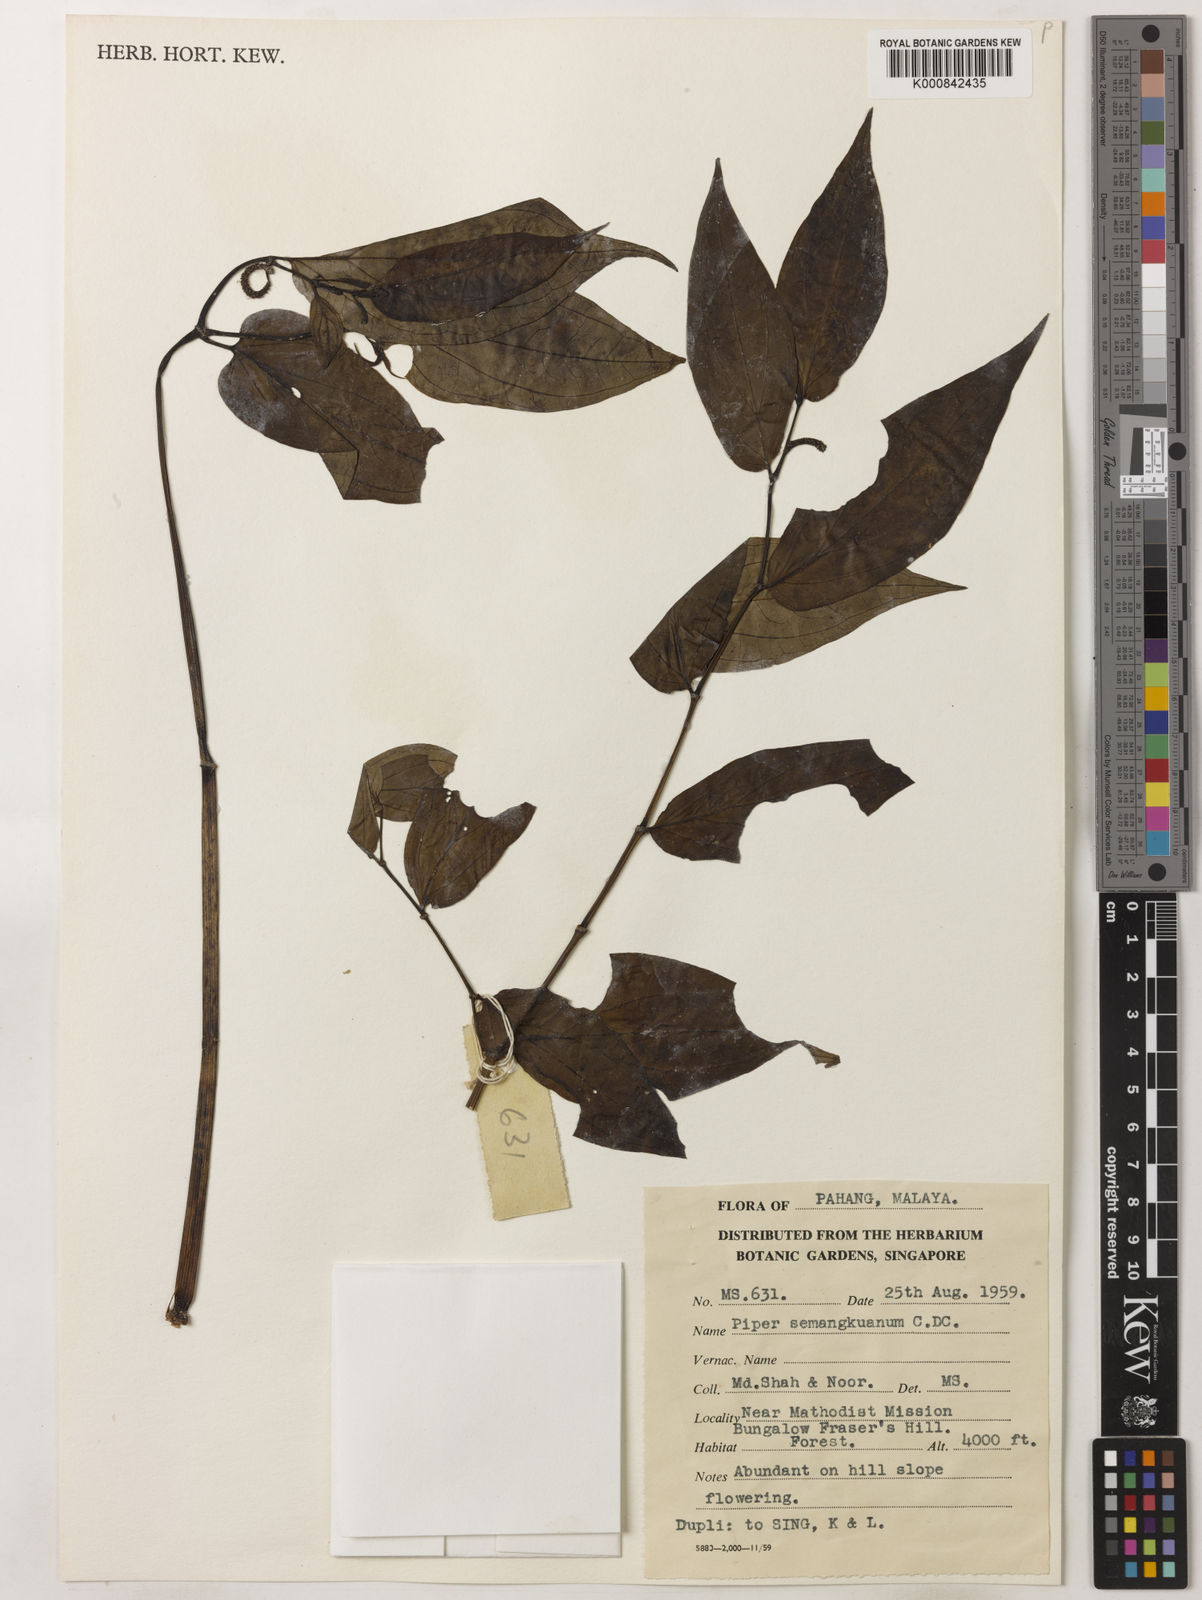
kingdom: Plantae
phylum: Tracheophyta
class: Magnoliopsida
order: Piperales
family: Piperaceae
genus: Piper
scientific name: Piper semangkoanum
